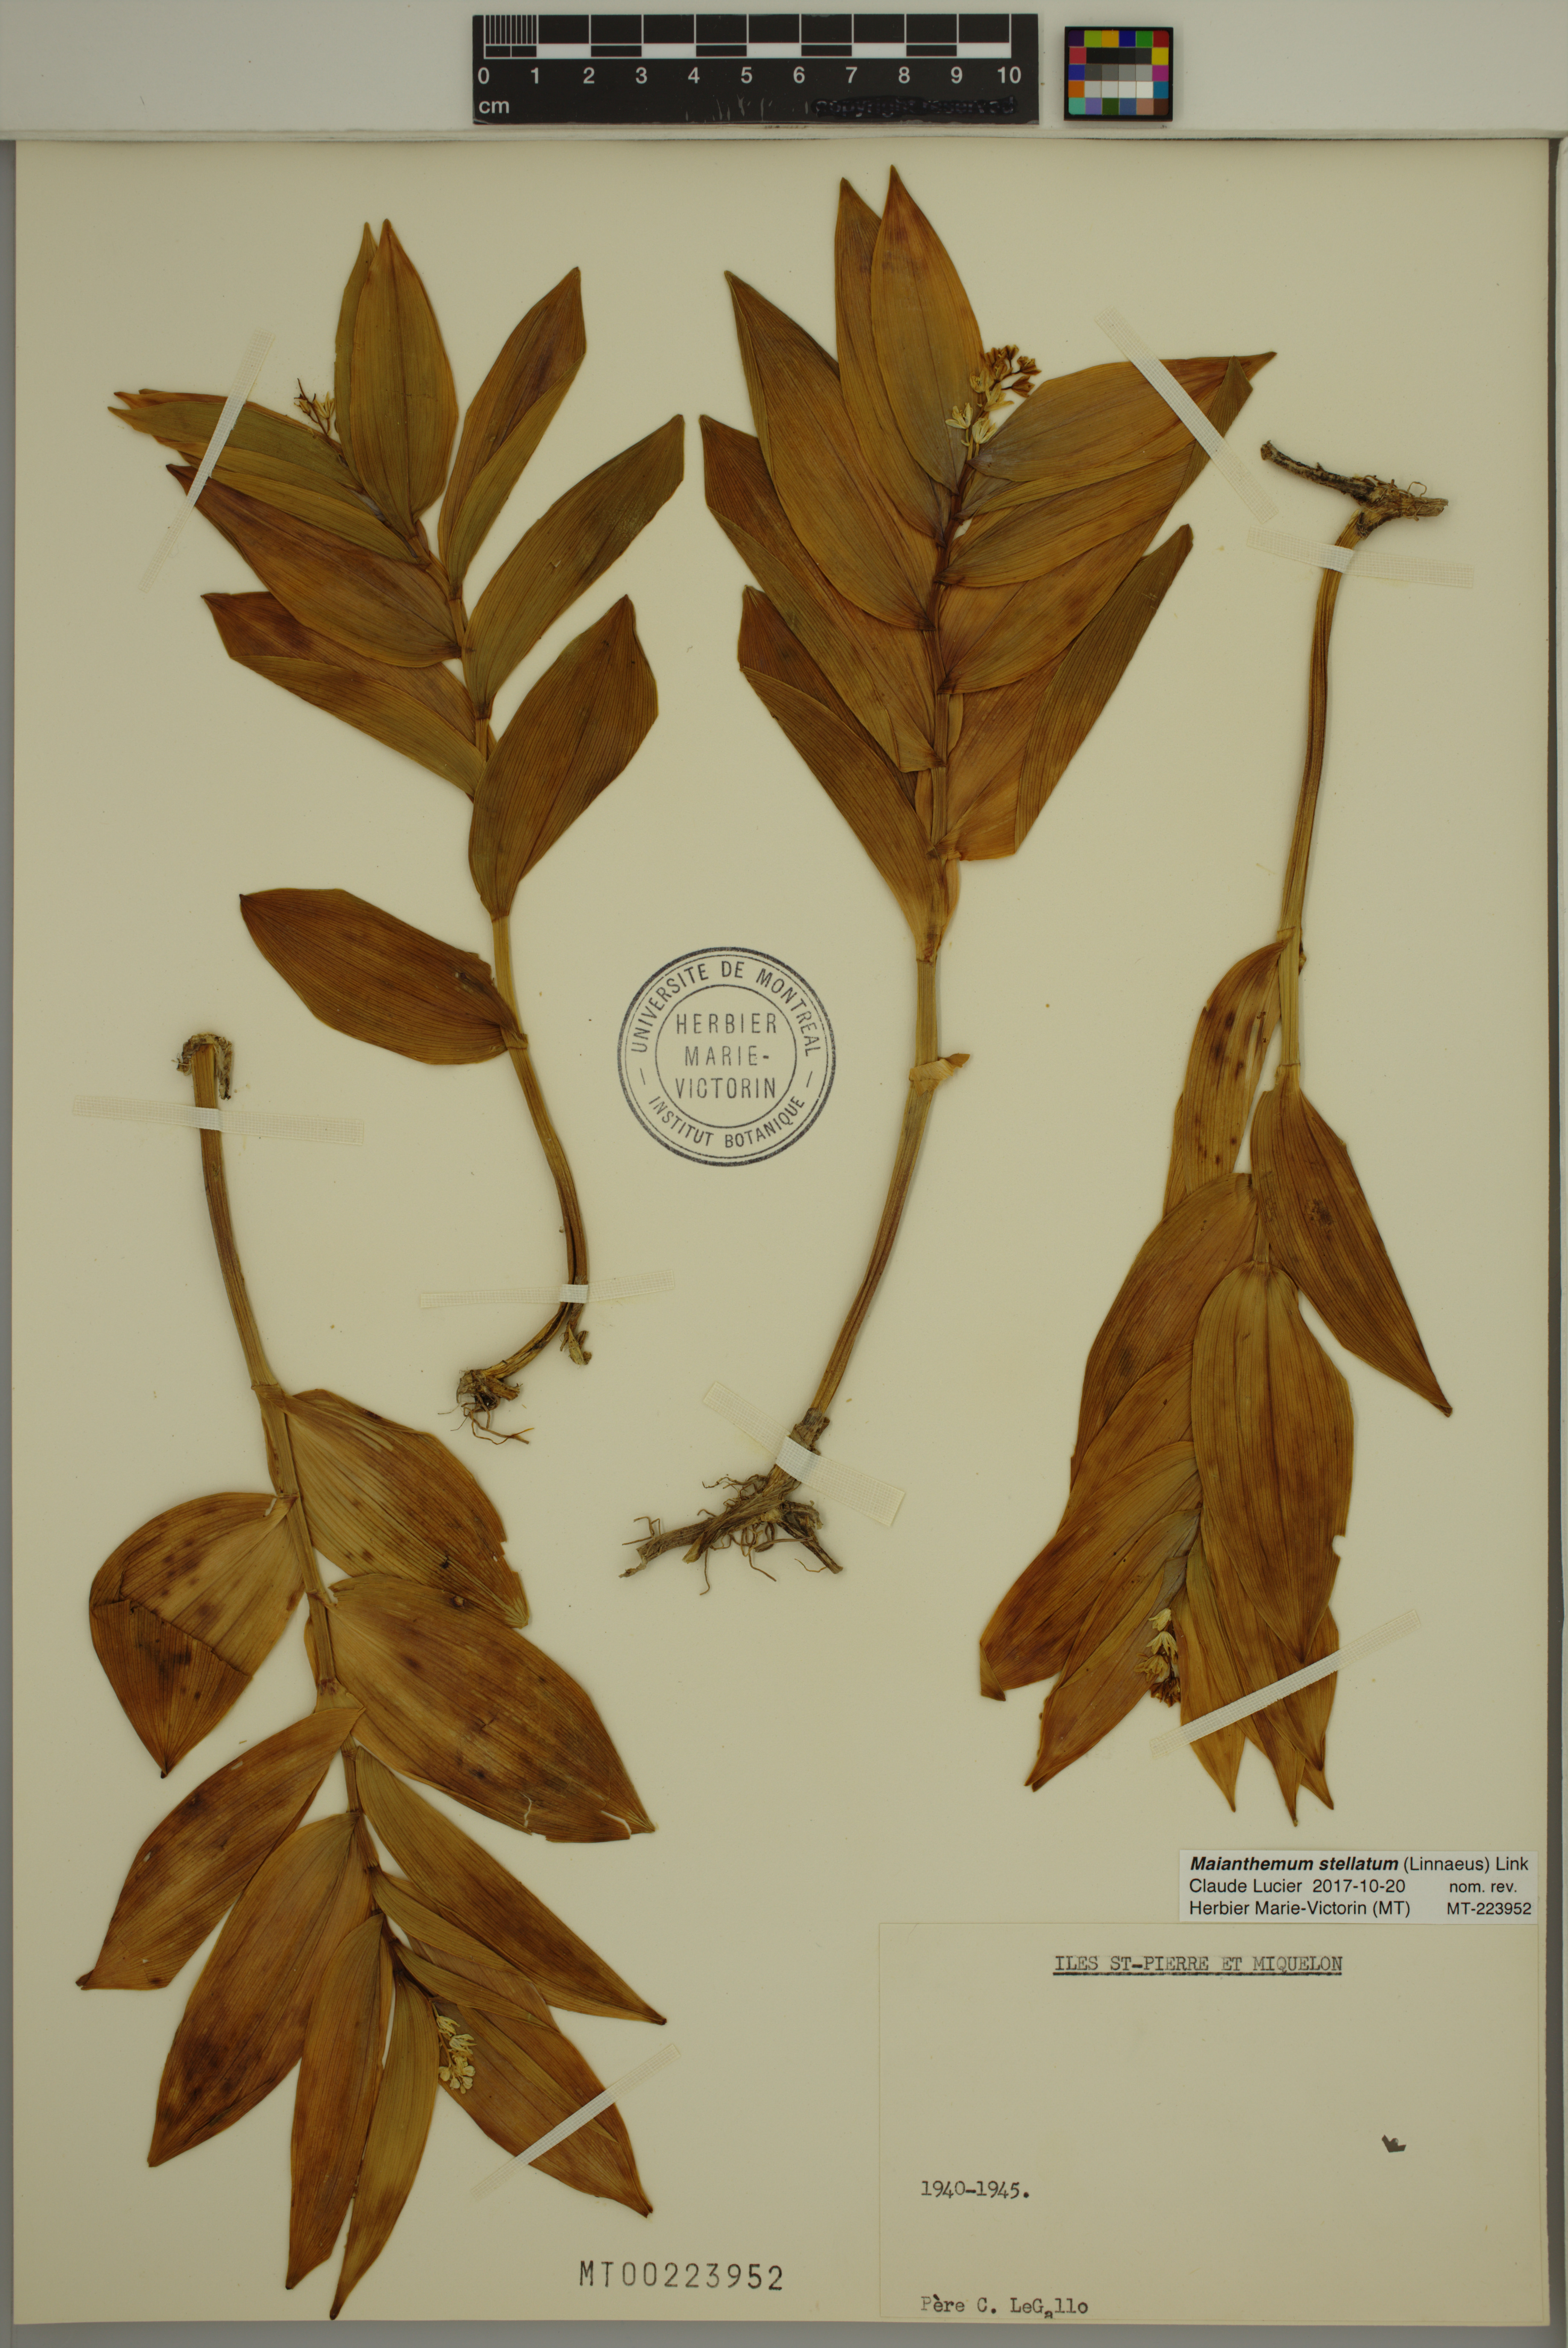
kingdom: Plantae
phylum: Tracheophyta
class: Liliopsida
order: Asparagales
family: Asparagaceae
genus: Maianthemum
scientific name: Maianthemum stellatum
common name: Little false solomon's seal
